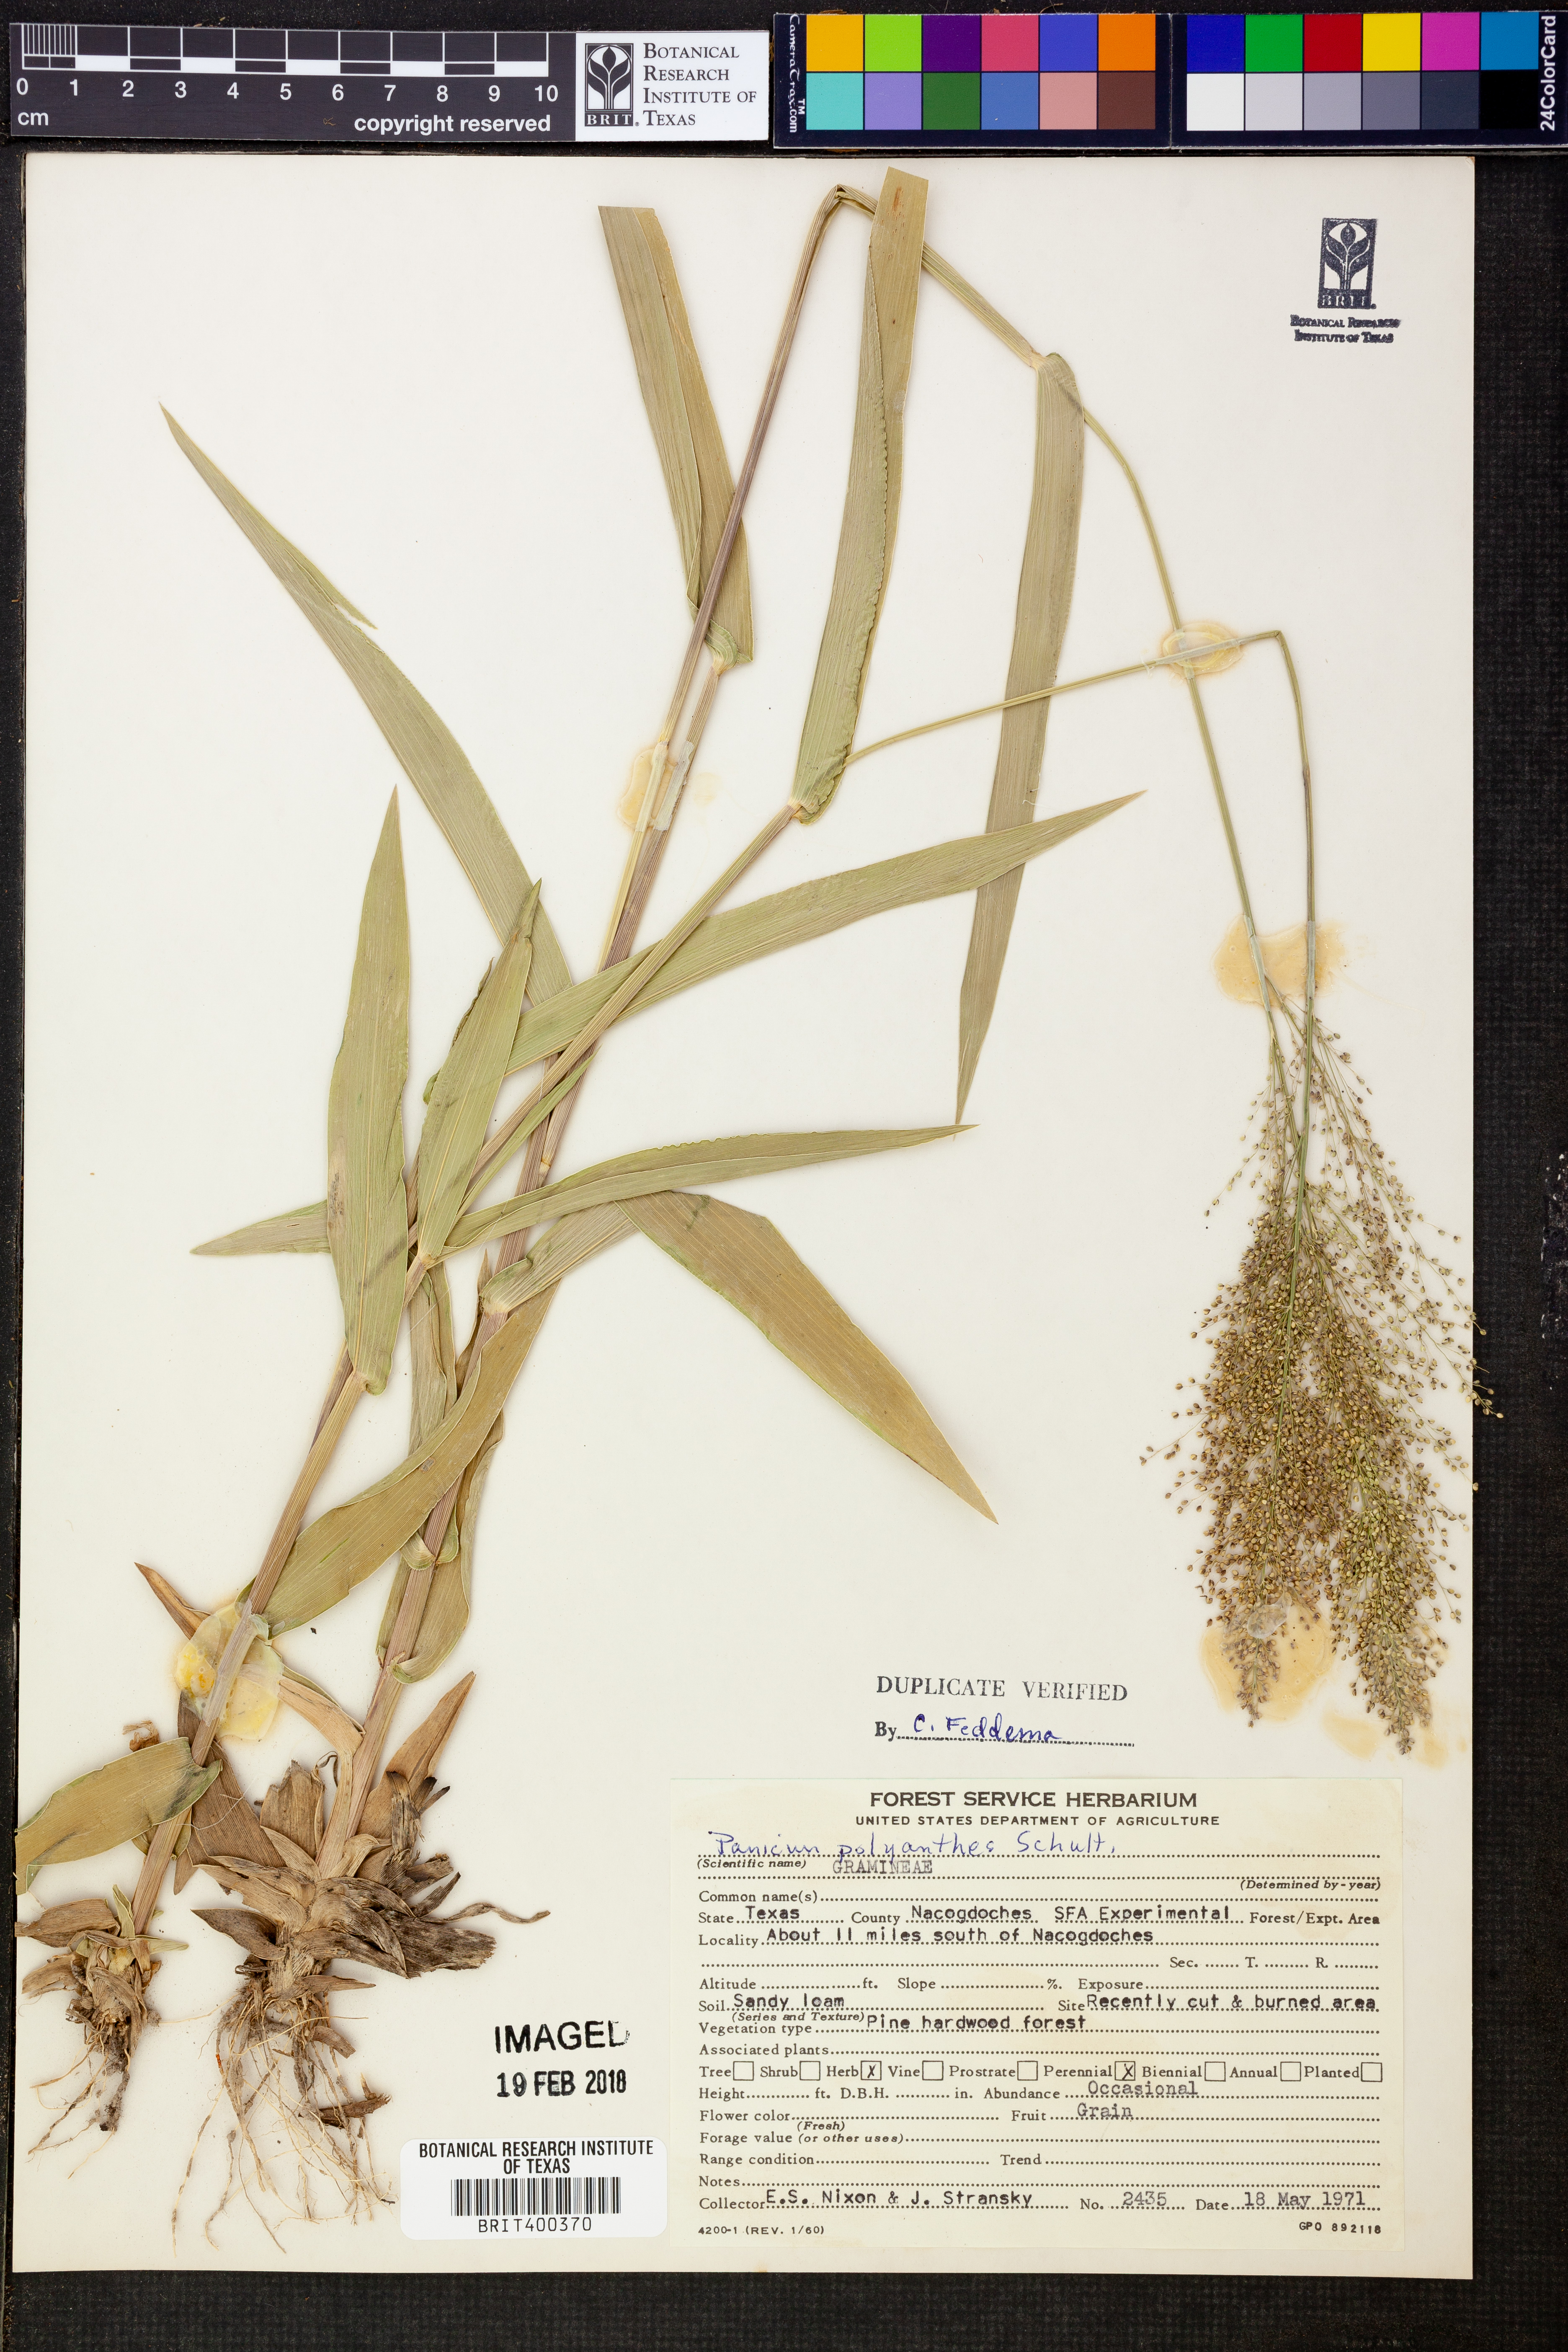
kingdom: Plantae
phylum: Tracheophyta
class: Liliopsida
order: Poales
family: Poaceae
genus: Dichanthelium
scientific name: Dichanthelium polyanthes
